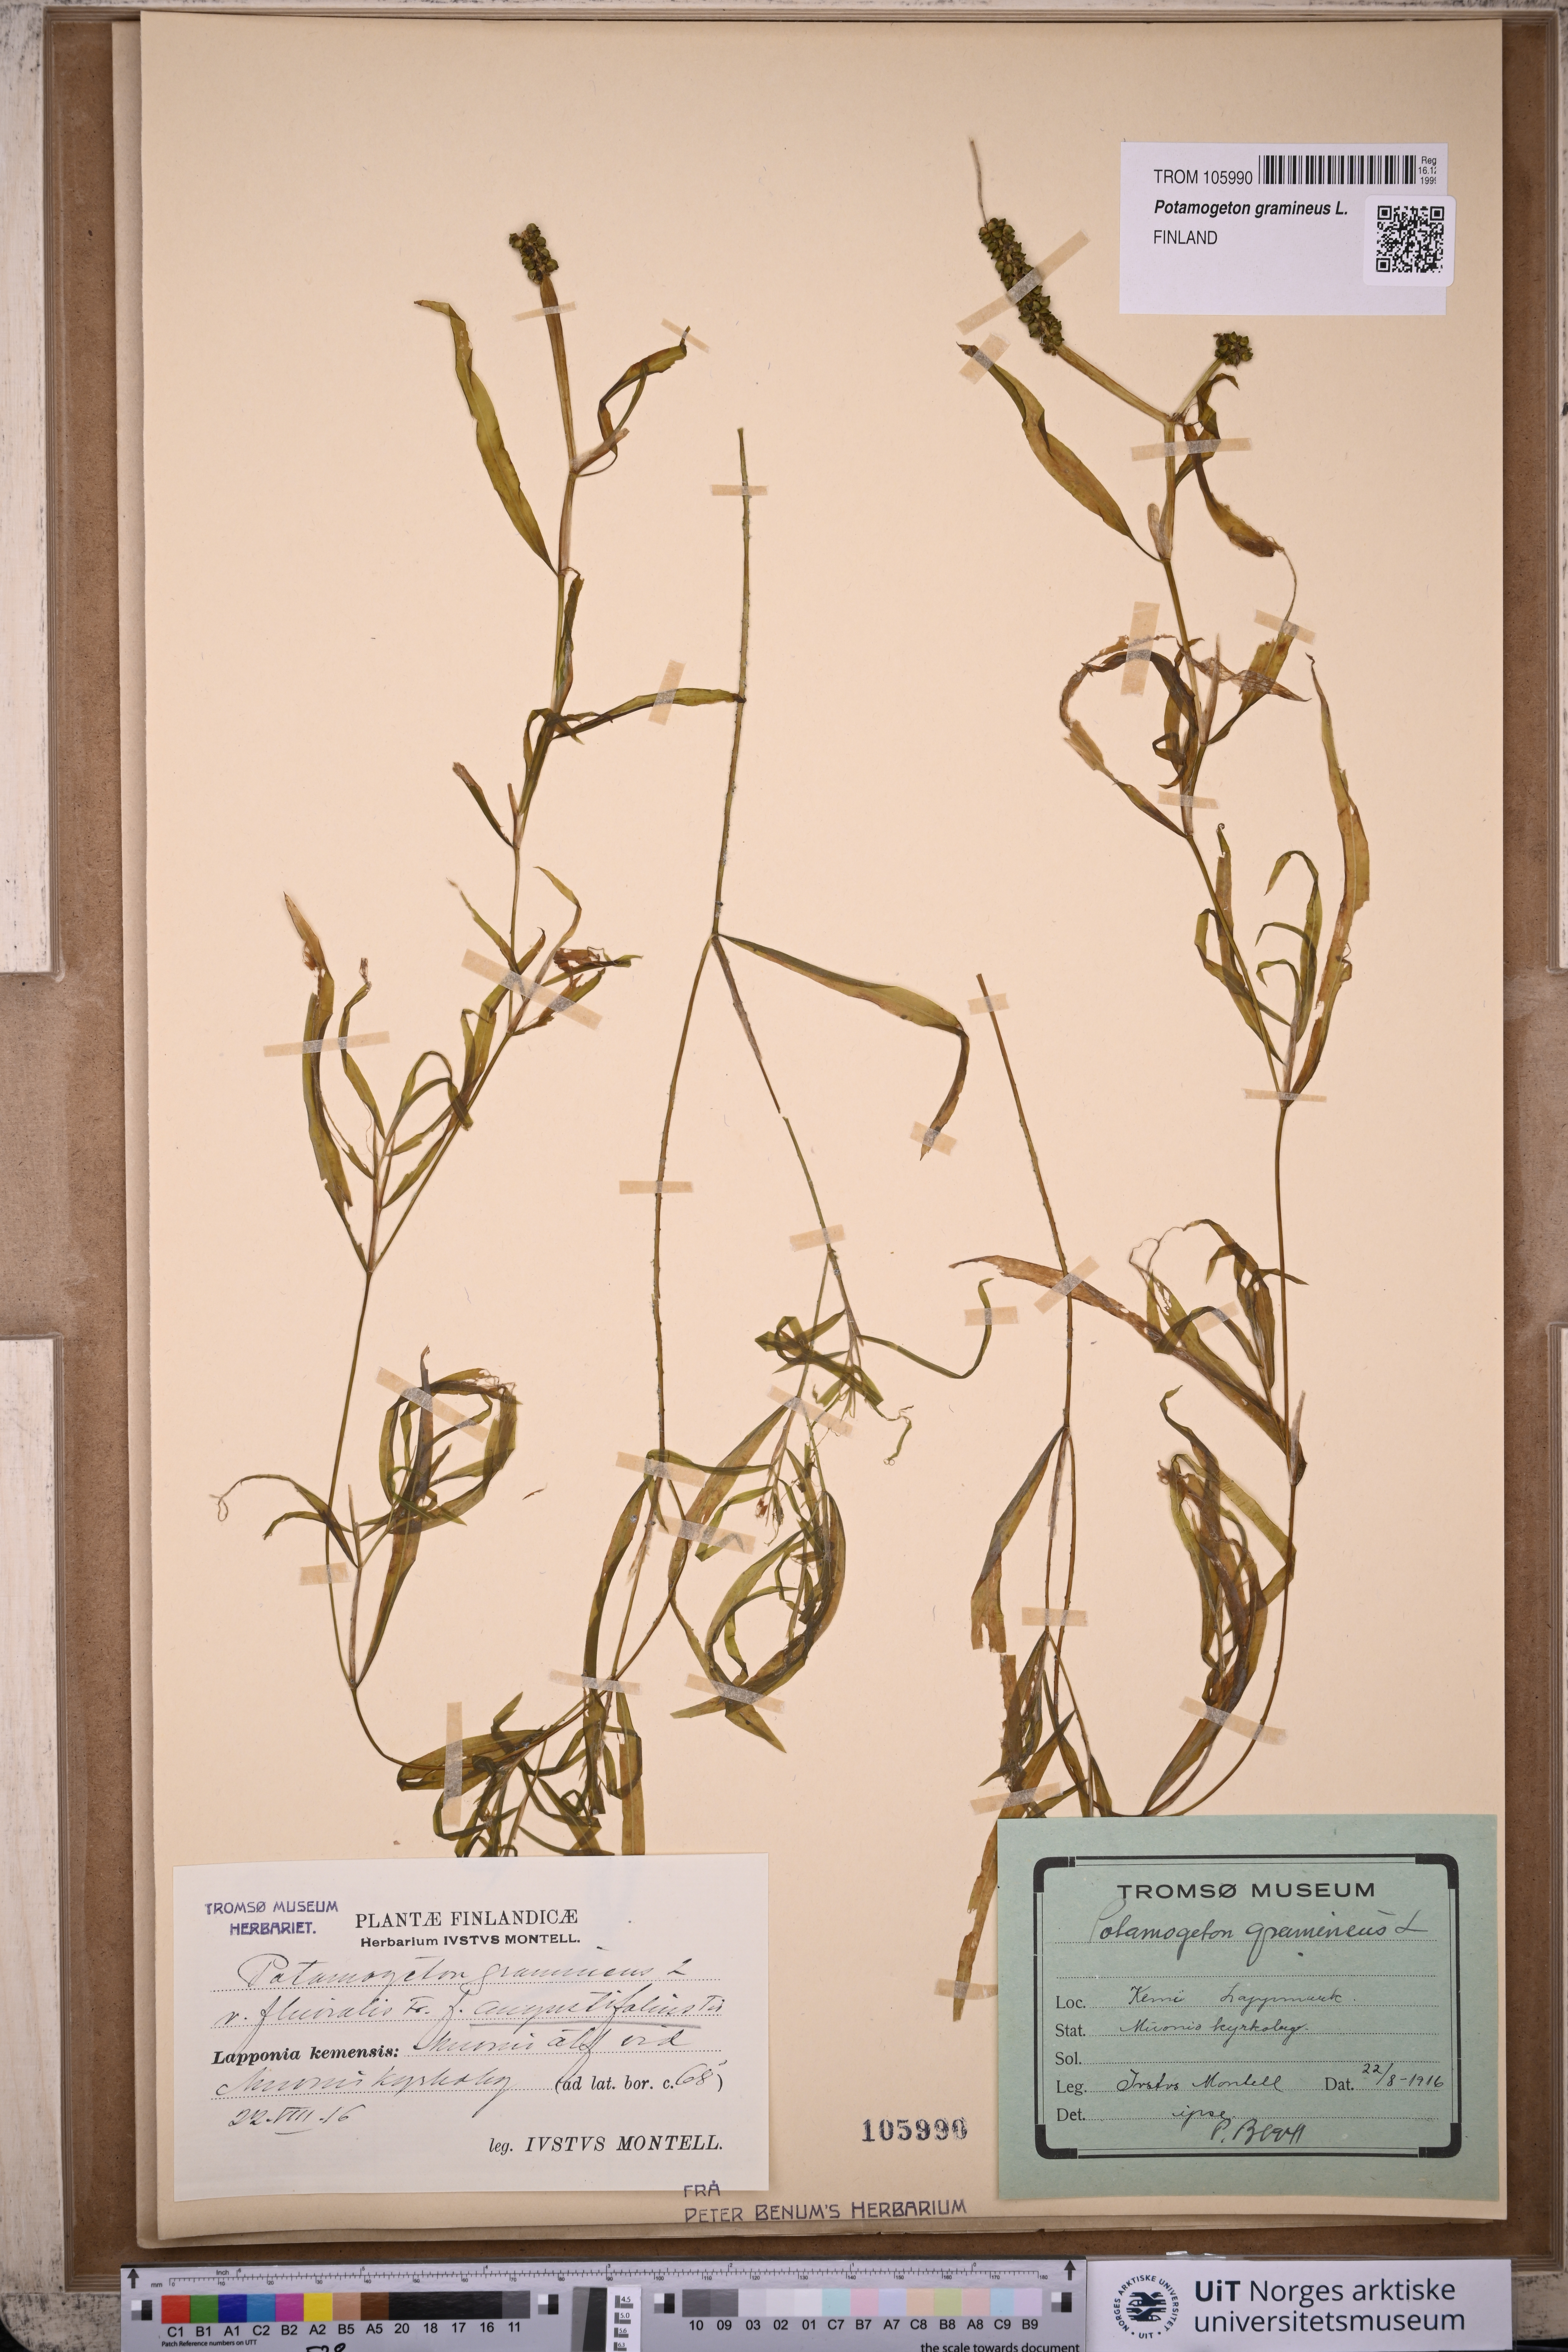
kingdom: Plantae
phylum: Tracheophyta
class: Liliopsida
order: Alismatales
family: Potamogetonaceae
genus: Potamogeton
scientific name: Potamogeton gramineus
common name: Various-leaved pondweed
